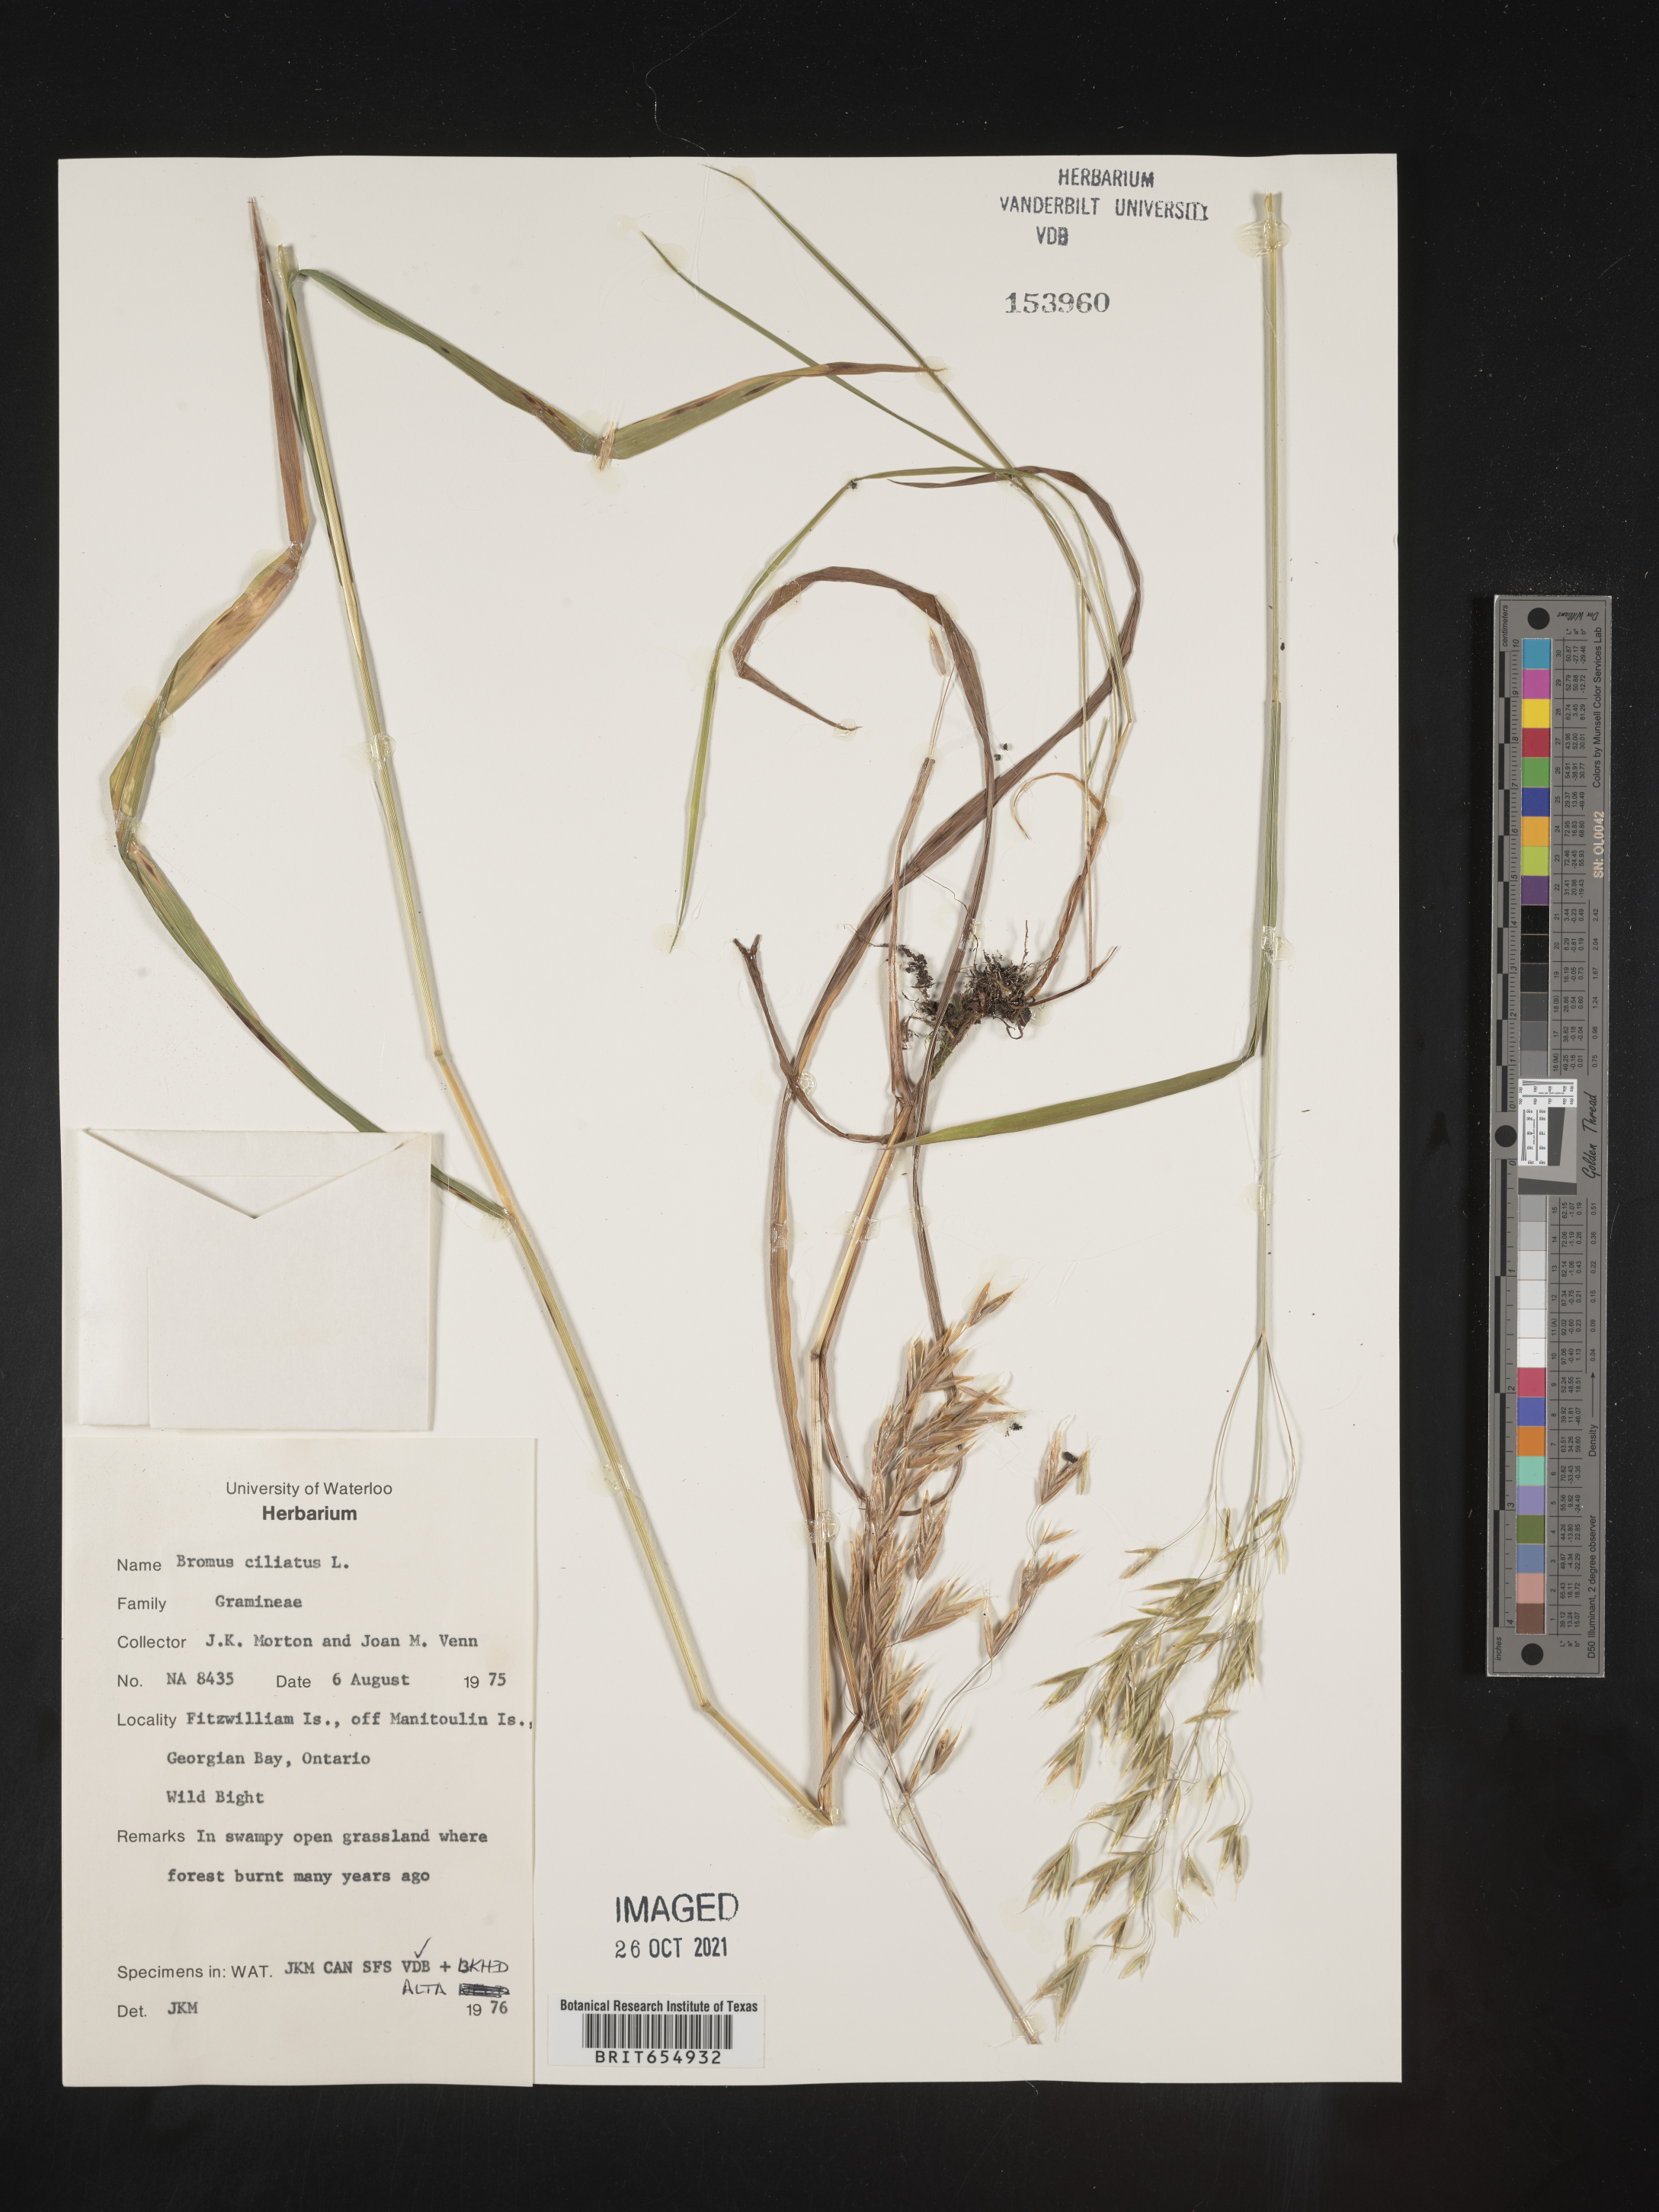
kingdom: Plantae
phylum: Tracheophyta
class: Liliopsida
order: Poales
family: Poaceae
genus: Bromus
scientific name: Bromus
